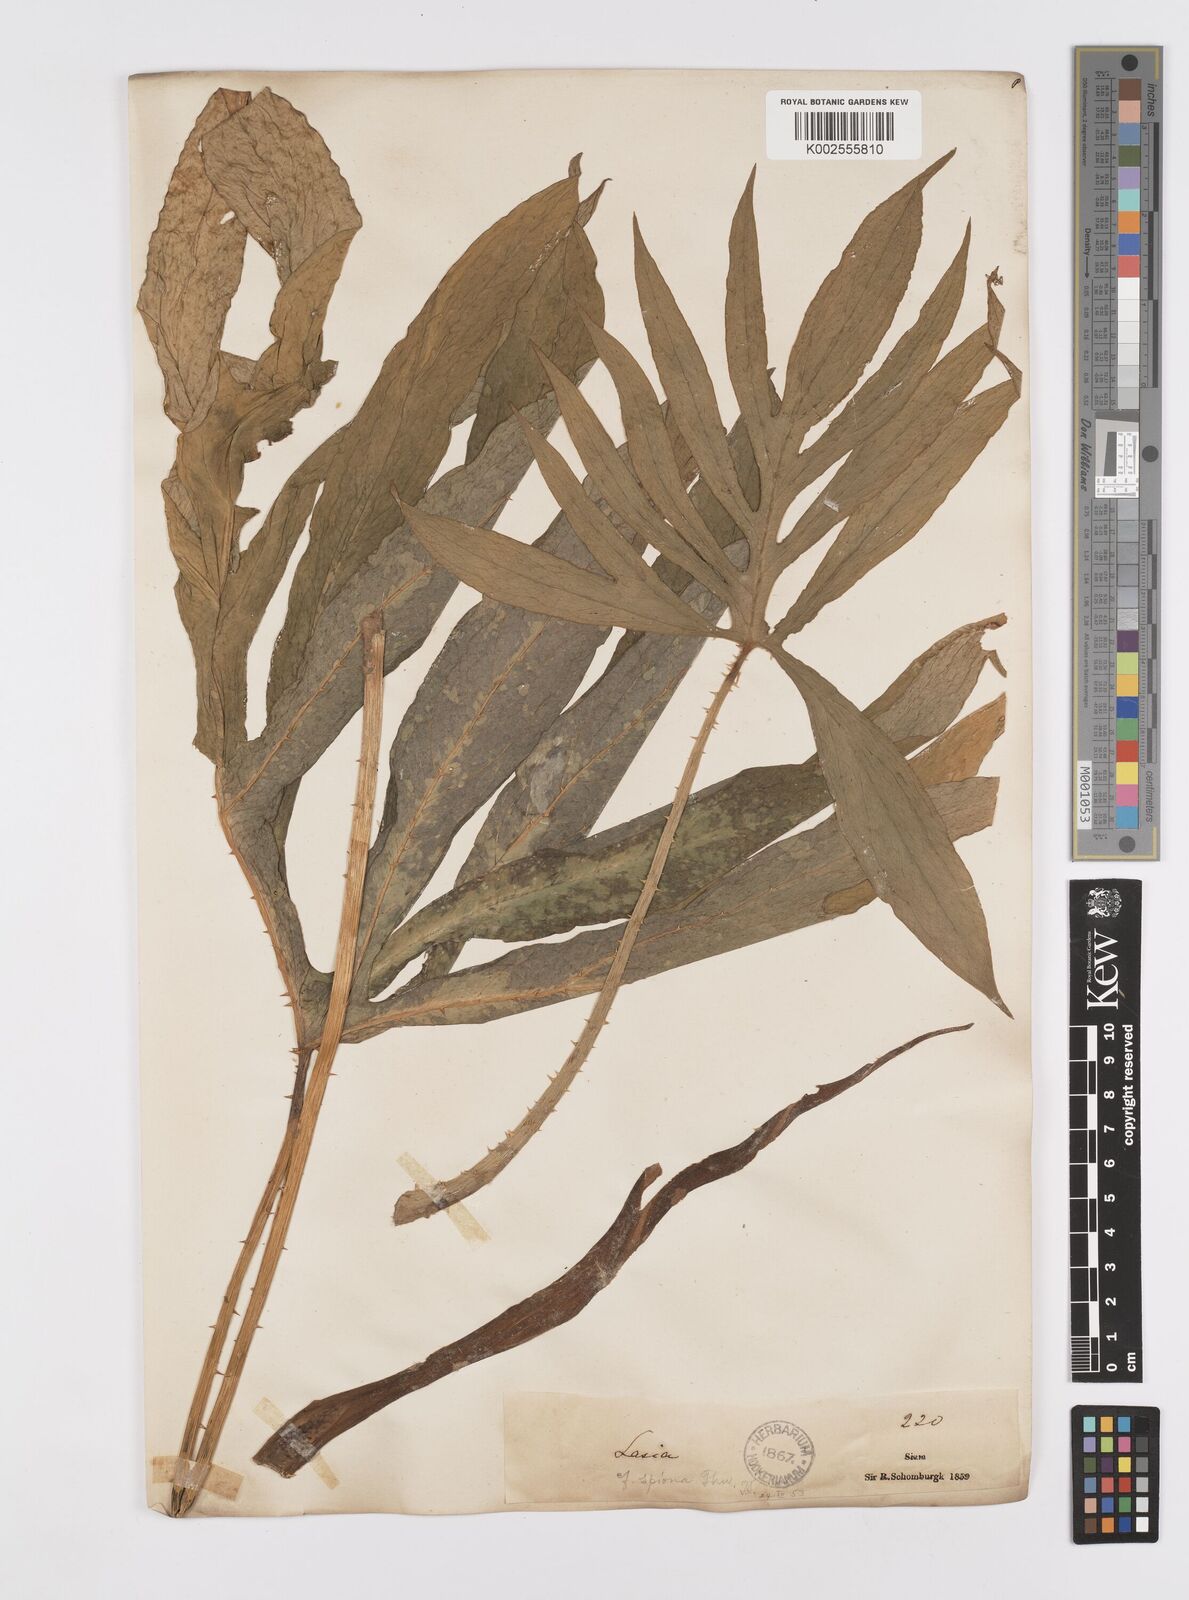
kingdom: Plantae
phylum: Tracheophyta
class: Liliopsida
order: Alismatales
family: Araceae
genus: Lasia
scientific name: Lasia spinosa
